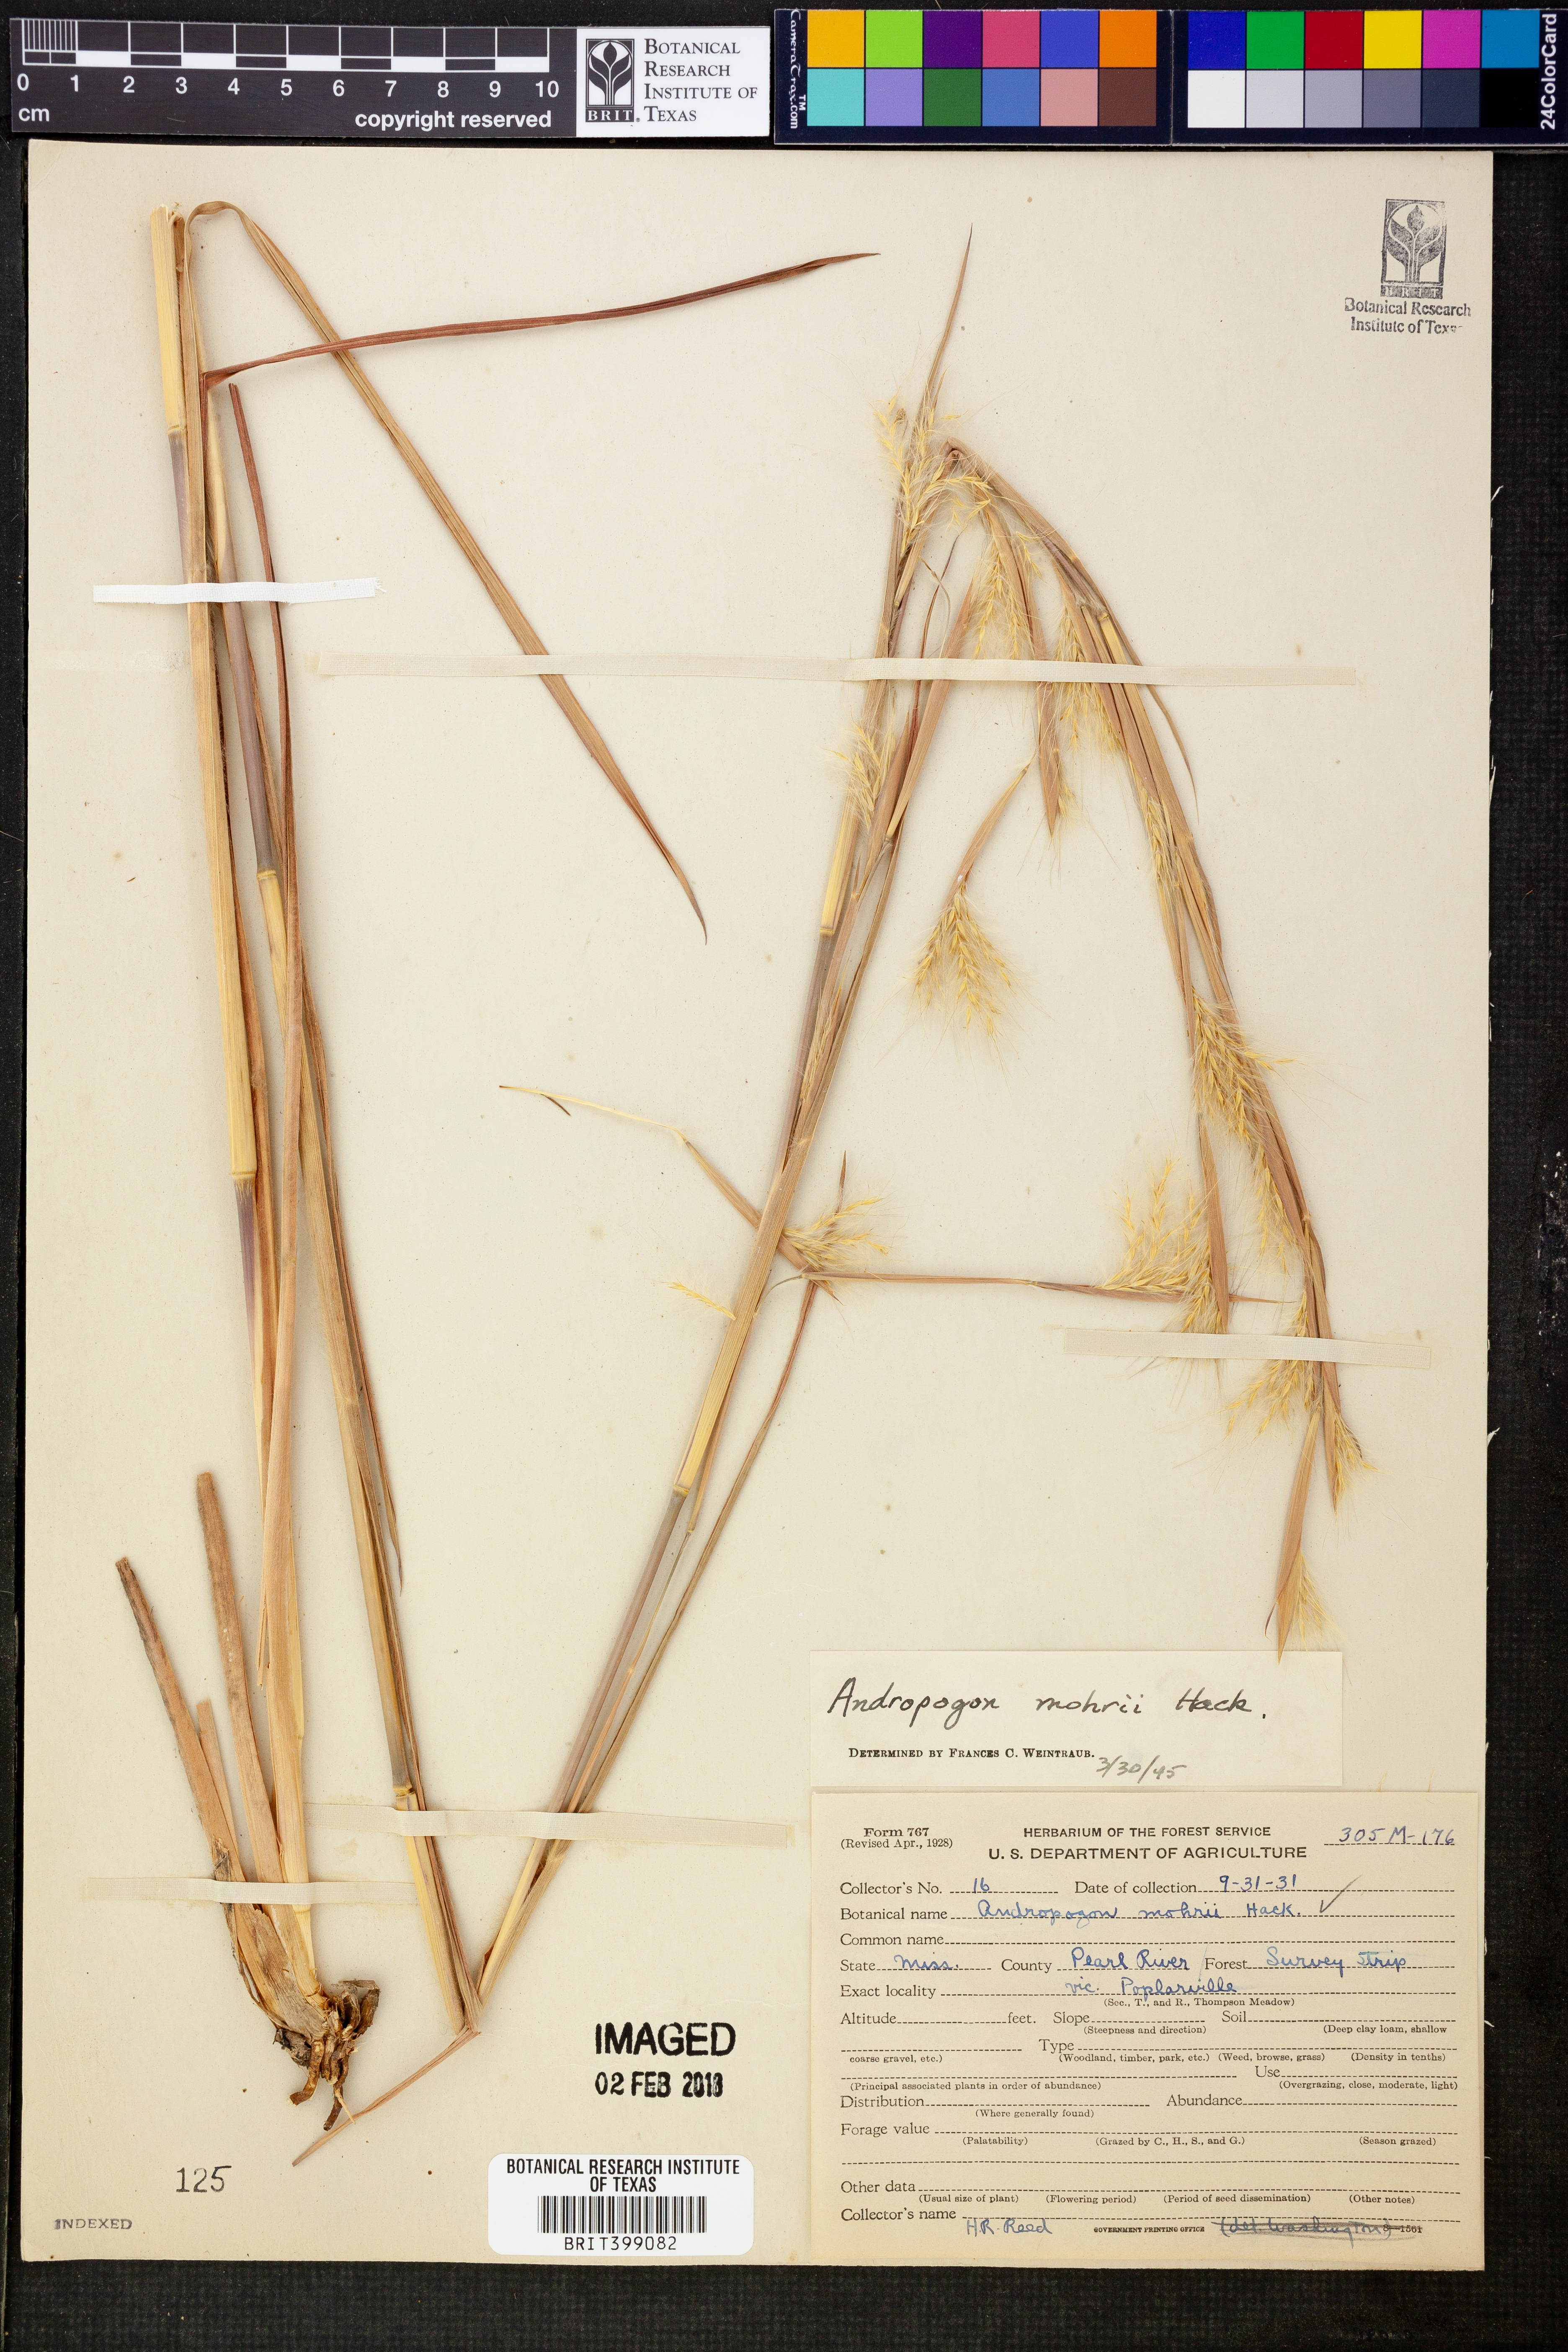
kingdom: Plantae
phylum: Tracheophyta
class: Liliopsida
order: Poales
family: Poaceae
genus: Andropogon
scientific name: Andropogon liebmannii
